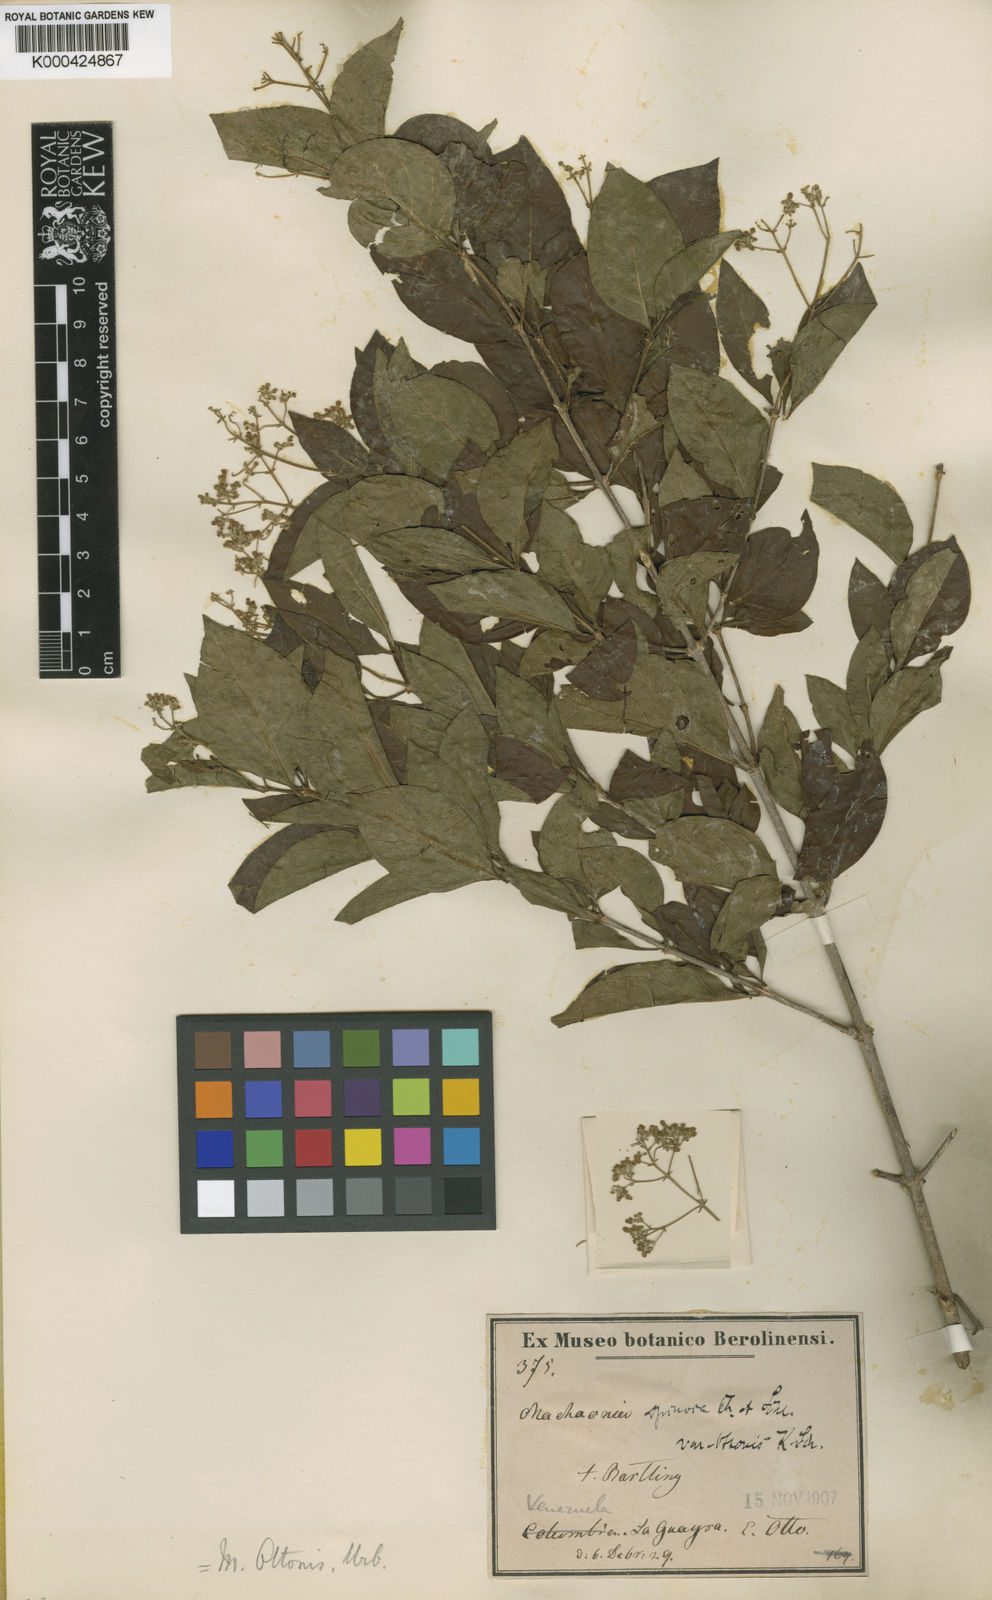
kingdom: Plantae
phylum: Tracheophyta
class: Magnoliopsida
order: Gentianales
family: Rubiaceae
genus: Machaonia
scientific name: Machaonia ottonis
